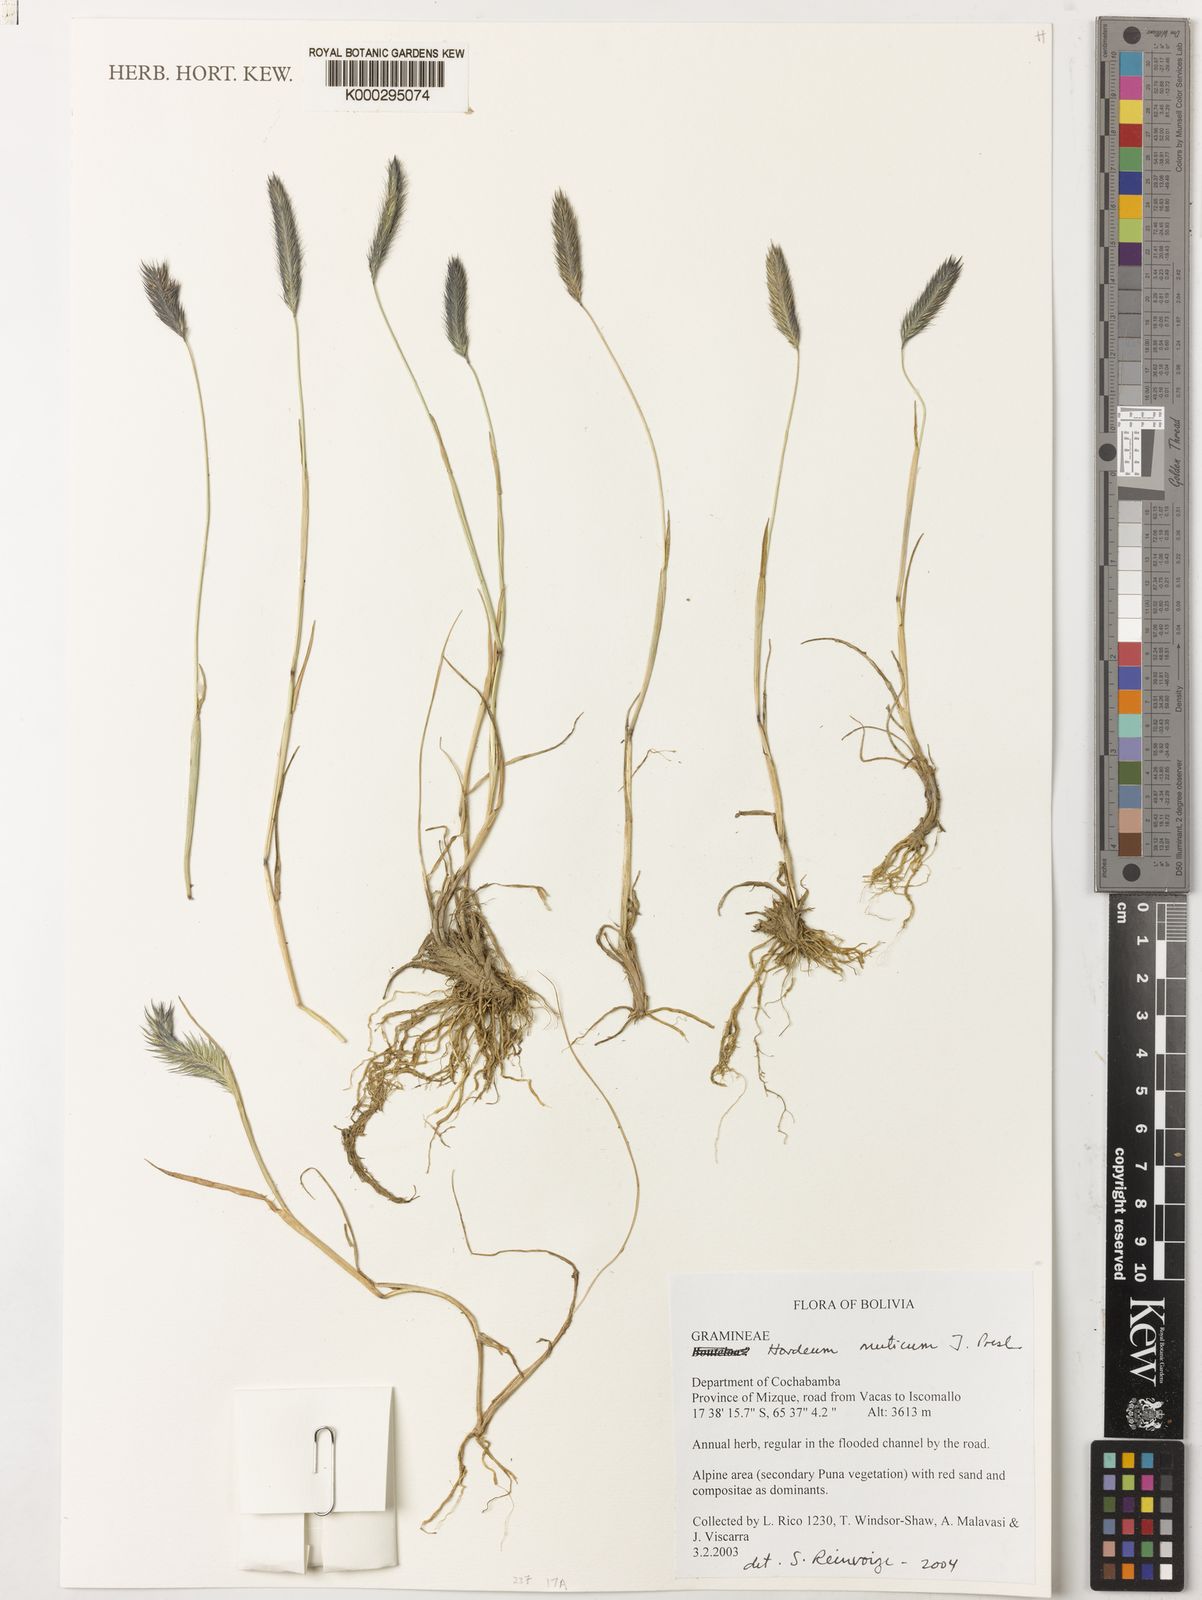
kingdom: Plantae
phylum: Tracheophyta
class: Liliopsida
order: Poales
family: Poaceae
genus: Hordeum
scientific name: Hordeum muticum
